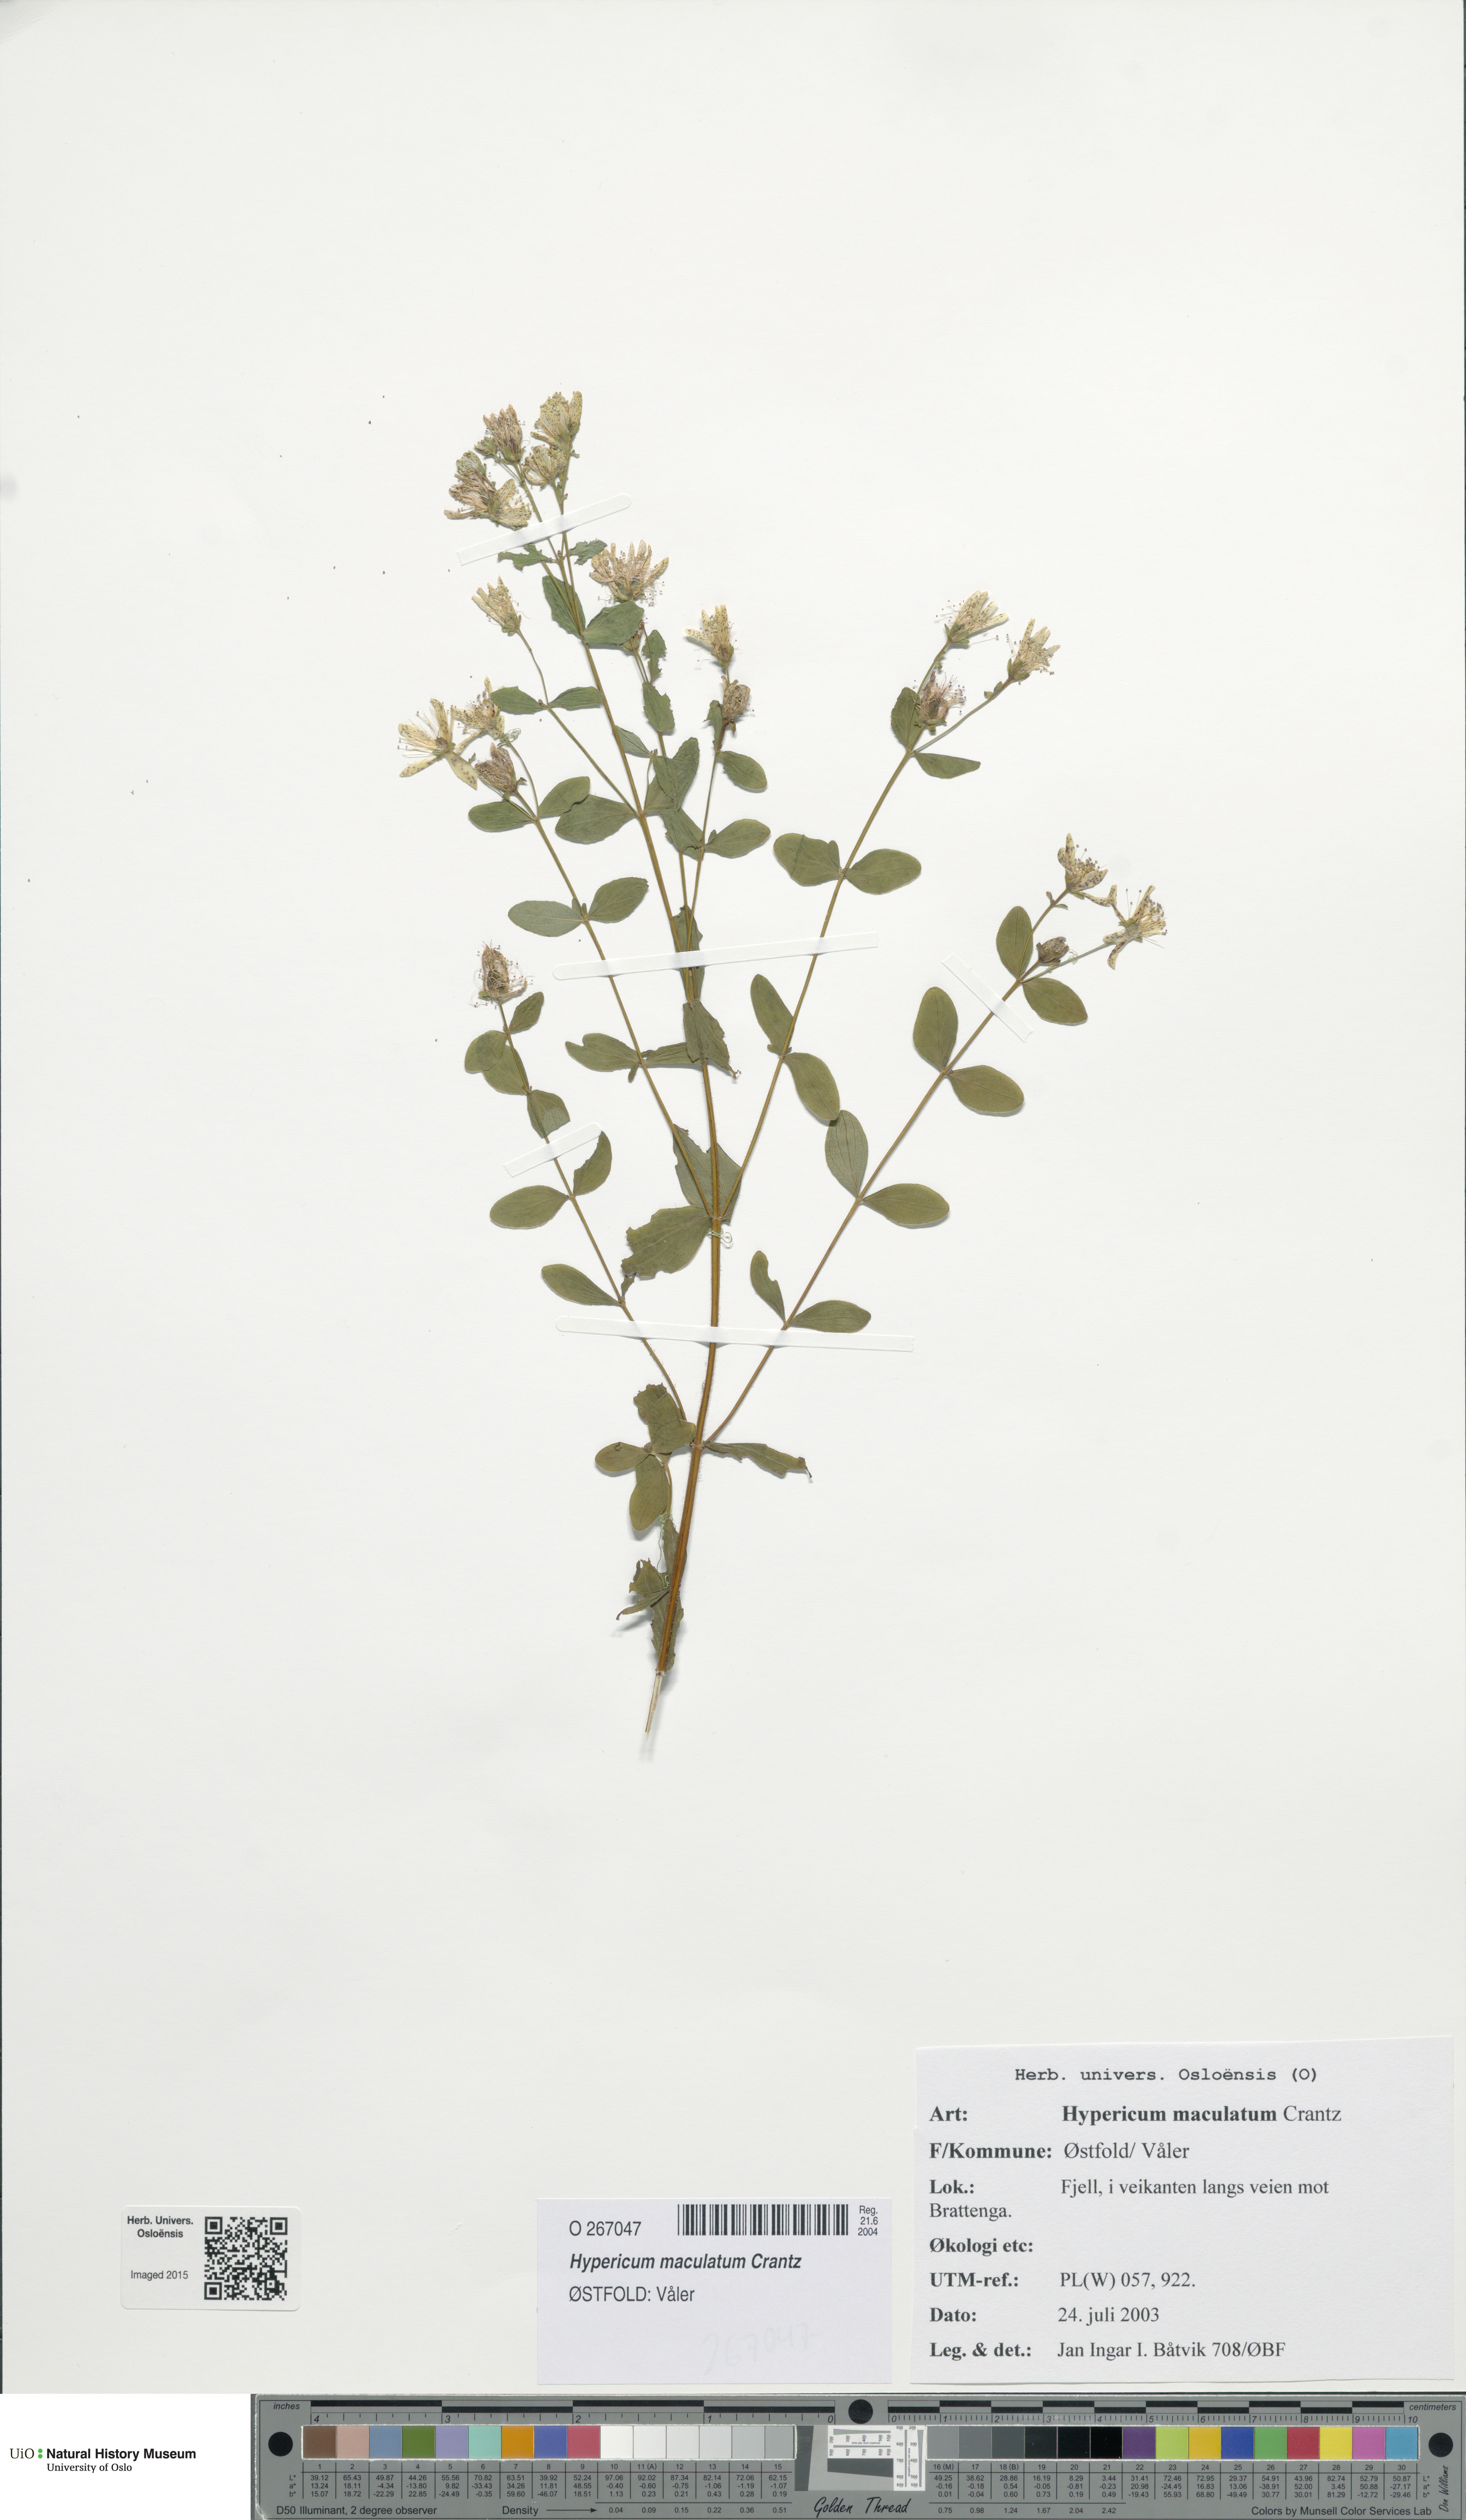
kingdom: Plantae
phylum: Tracheophyta
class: Magnoliopsida
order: Malpighiales
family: Hypericaceae
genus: Hypericum
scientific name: Hypericum maculatum
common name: Imperforate st. john's-wort
